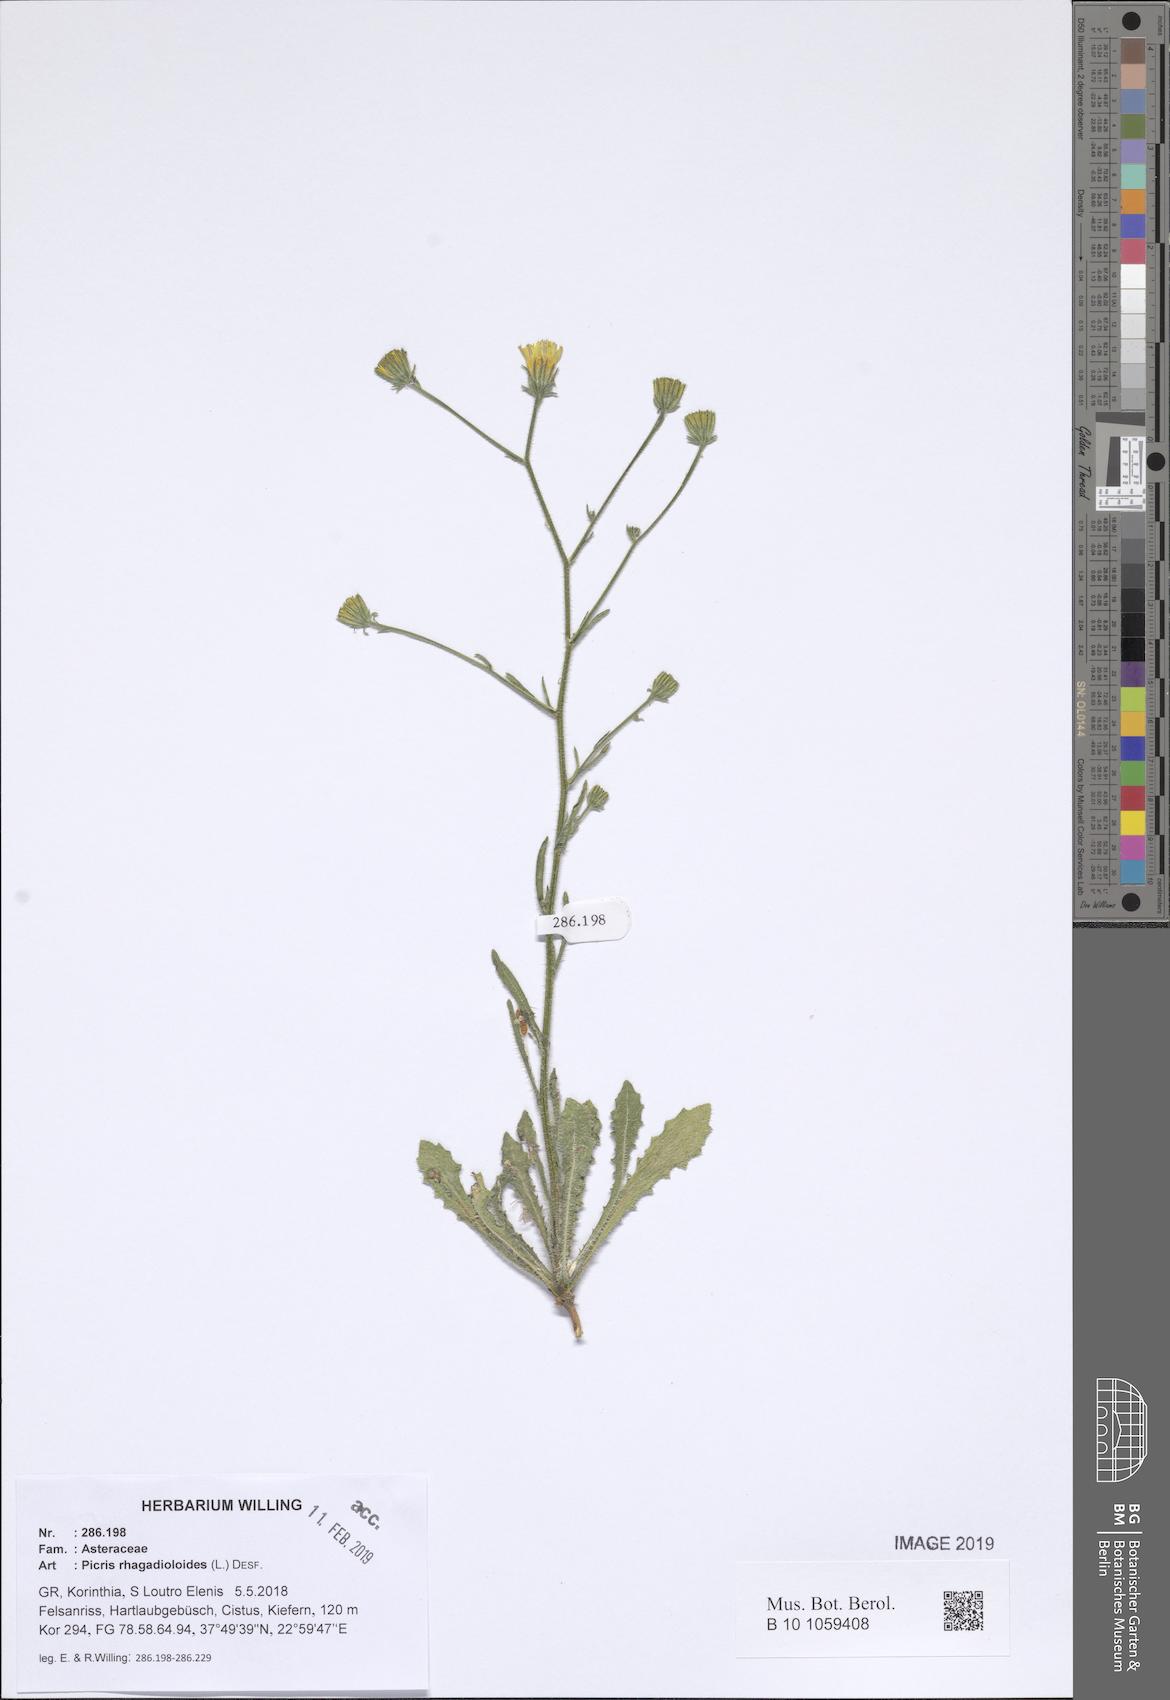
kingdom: Plantae
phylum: Tracheophyta
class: Magnoliopsida
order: Asterales
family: Asteraceae
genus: Picris
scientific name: Picris rhagadioloides
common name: Oxtongue
